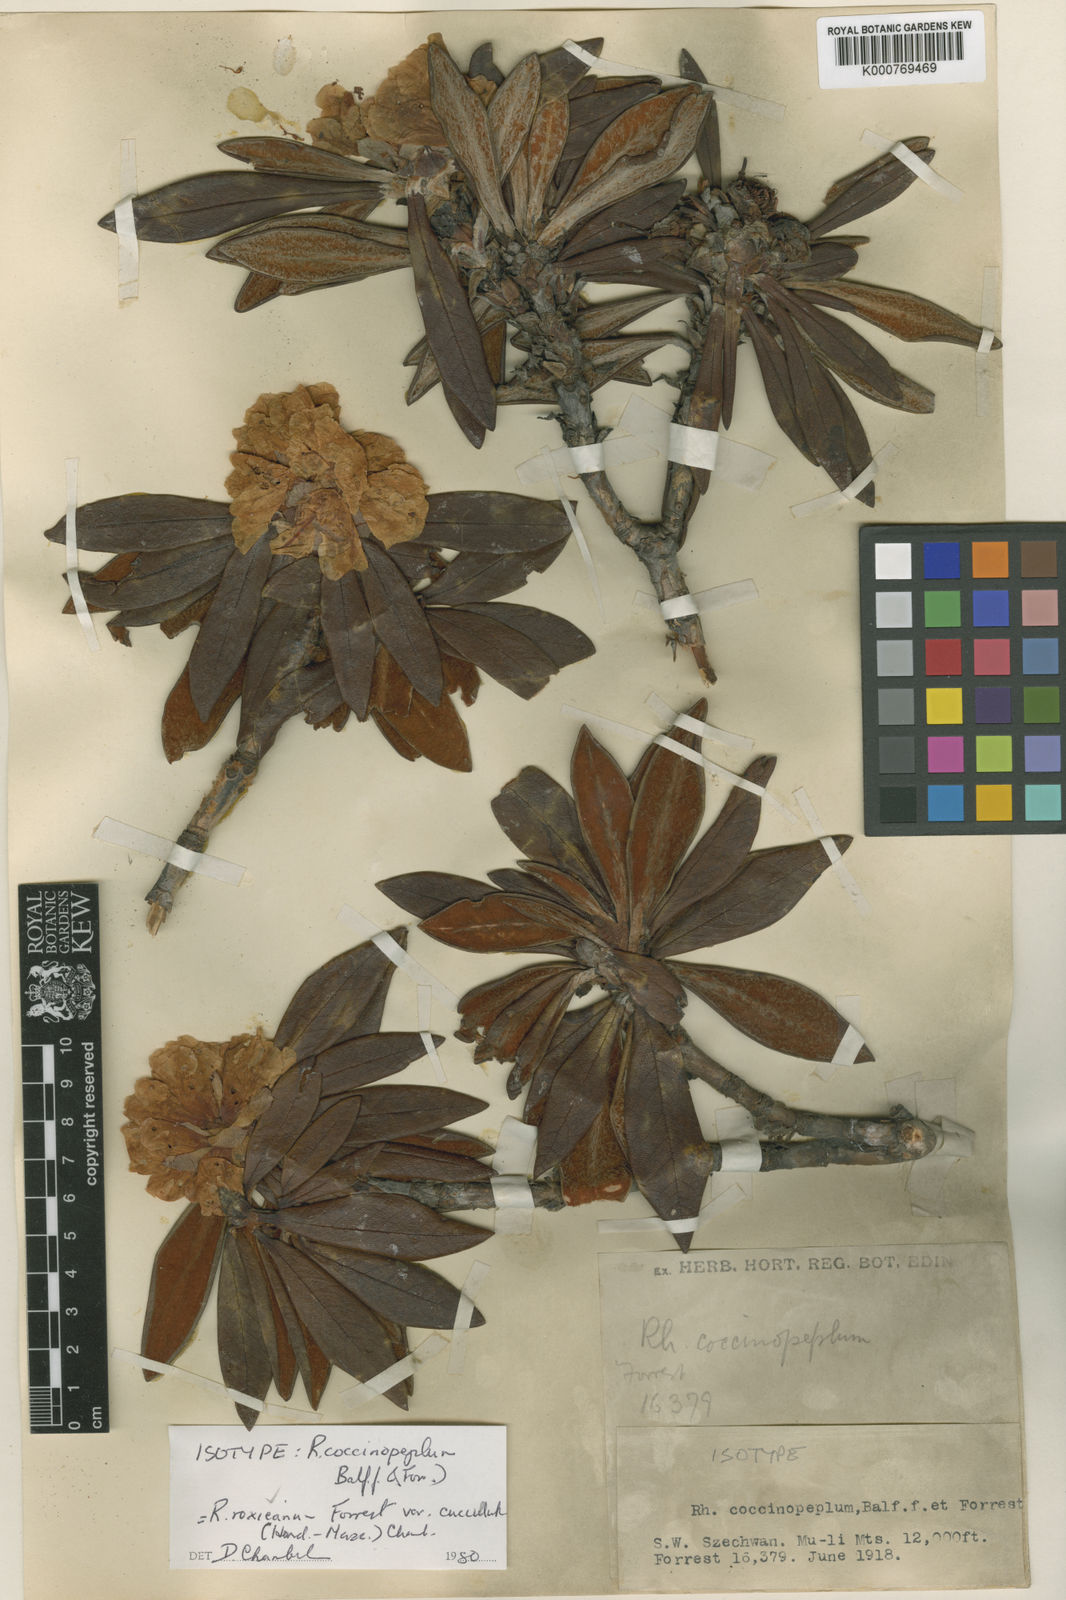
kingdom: Plantae
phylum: Tracheophyta
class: Magnoliopsida
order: Ericales
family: Ericaceae
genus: Rhododendron
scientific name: Rhododendron roxieanum
